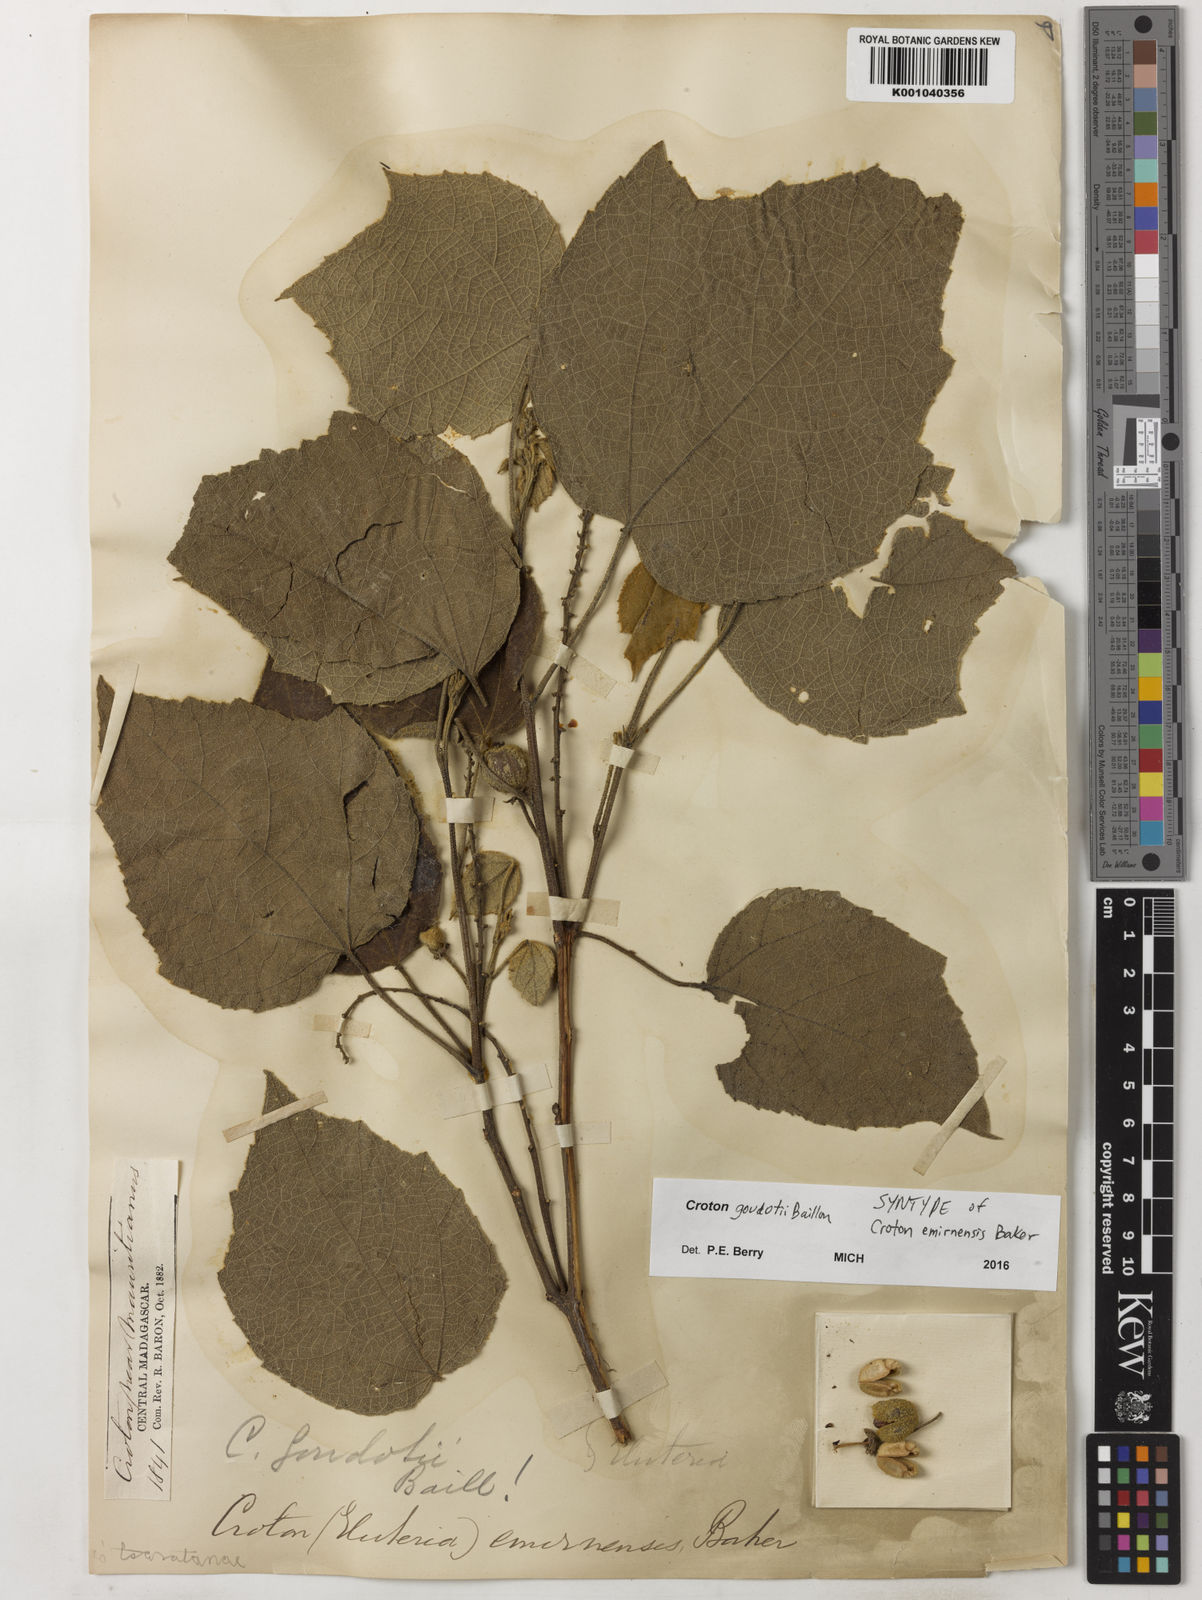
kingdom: Plantae
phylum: Tracheophyta
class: Magnoliopsida
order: Malpighiales
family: Euphorbiaceae
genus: Croton
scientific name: Croton goudotii
